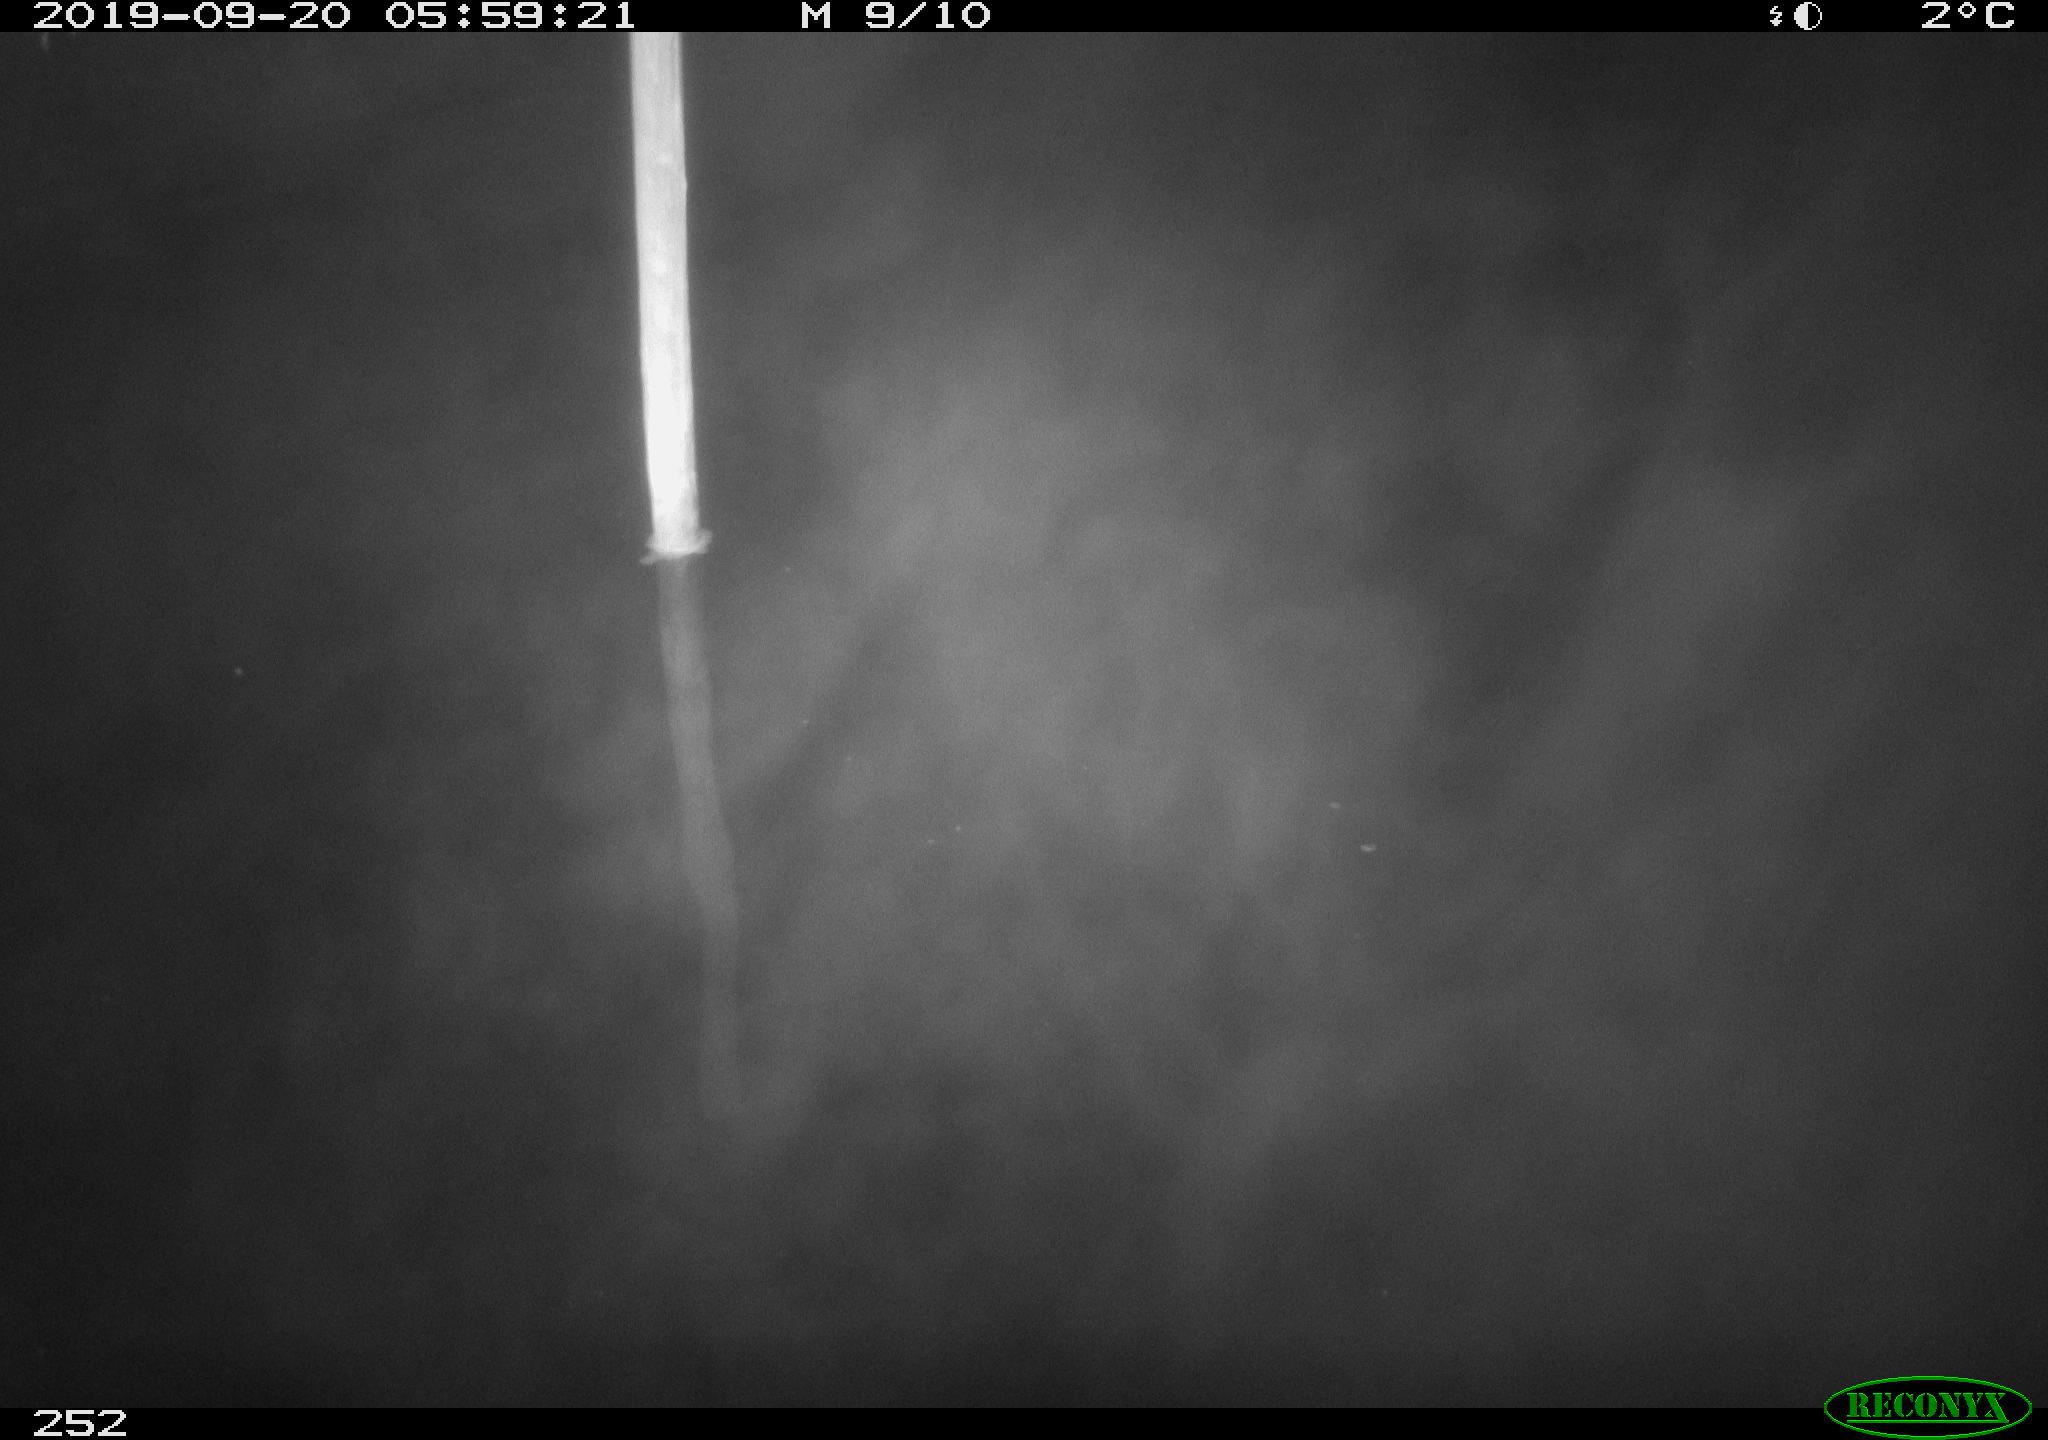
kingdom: Animalia
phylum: Chordata
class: Aves
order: Anseriformes
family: Anatidae
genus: Anas
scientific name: Anas platyrhynchos
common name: Mallard
